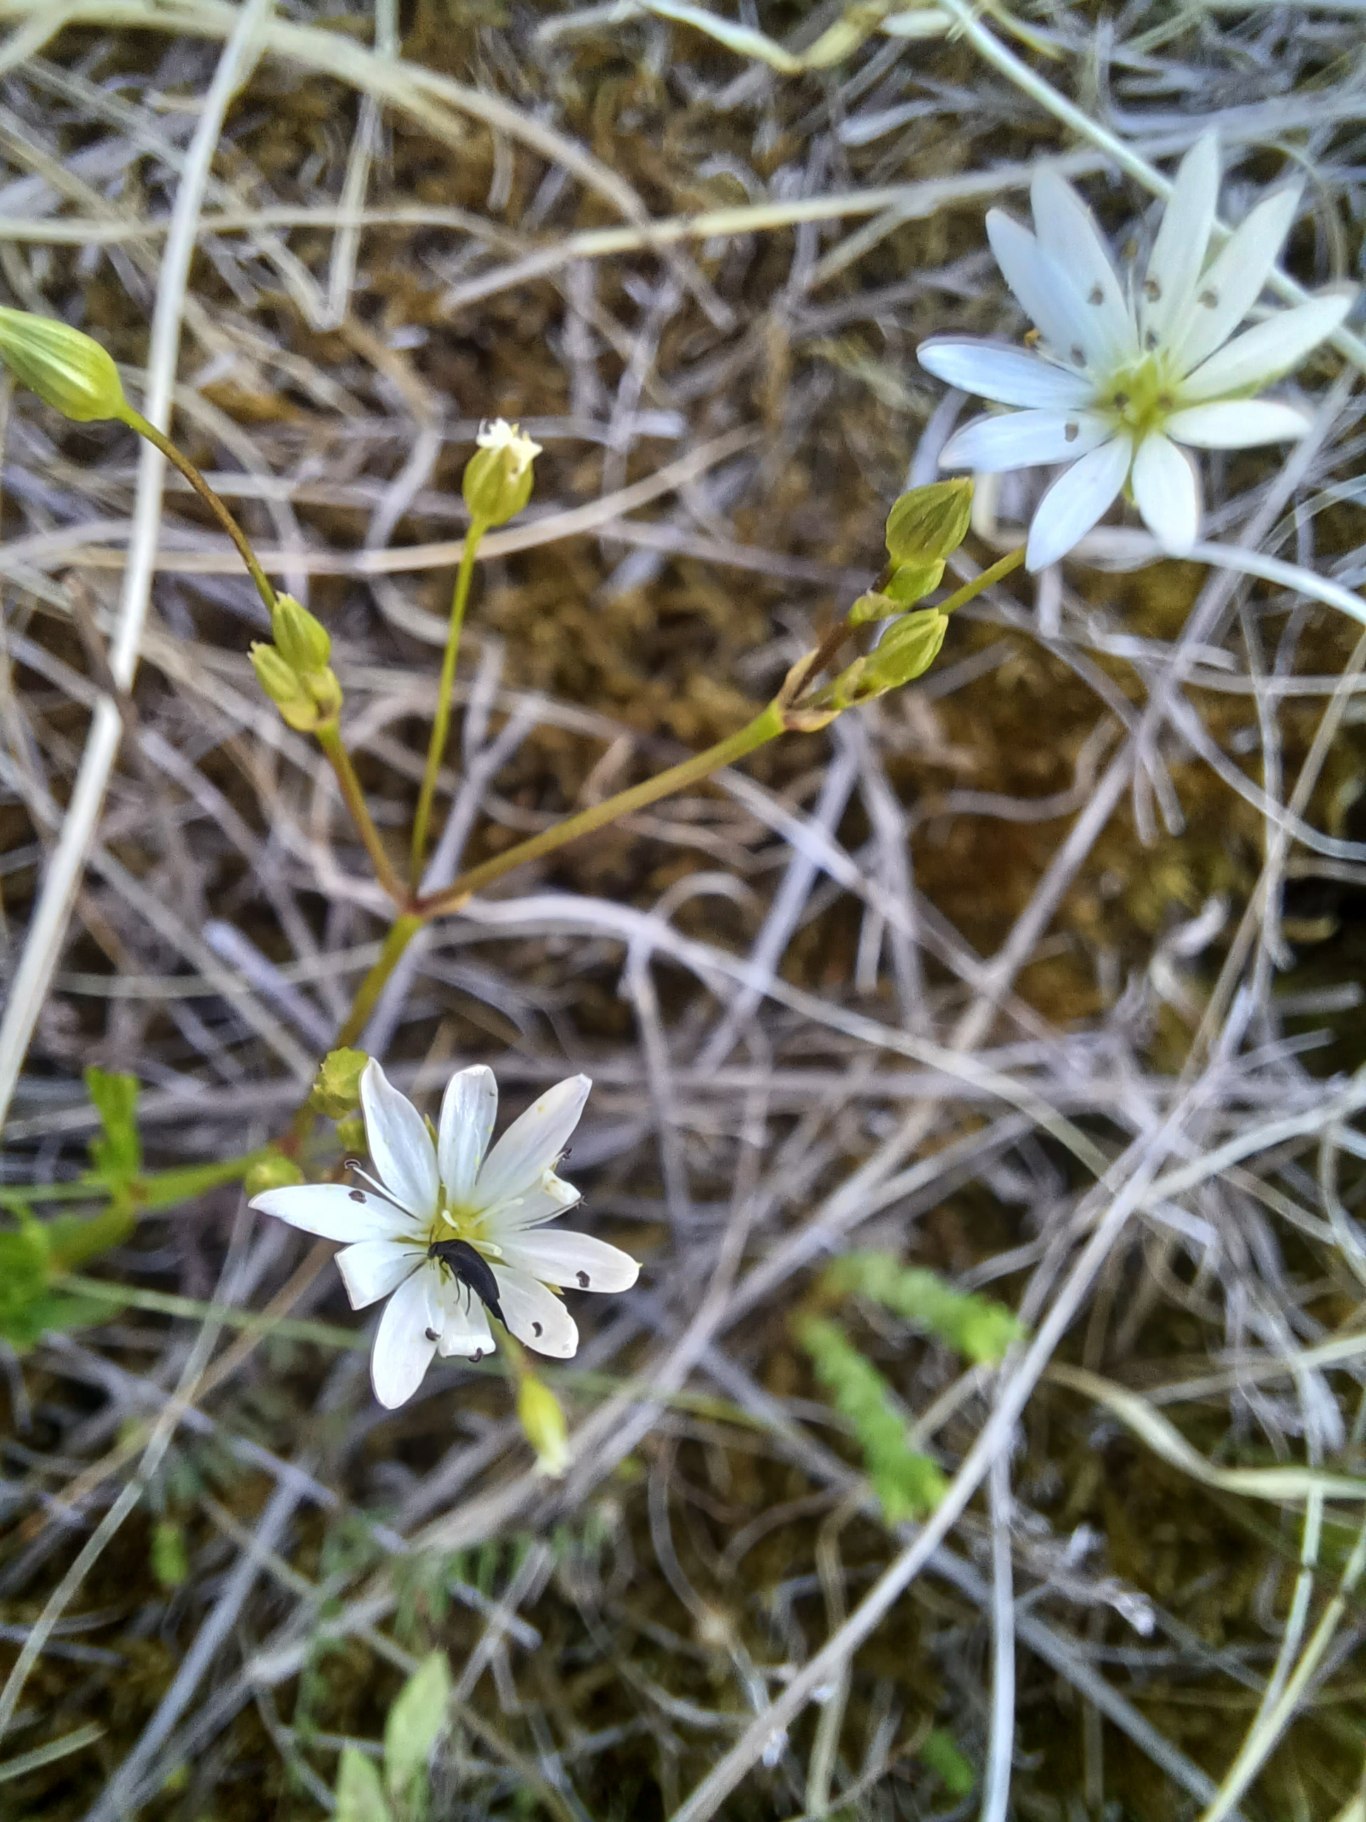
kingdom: Plantae
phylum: Tracheophyta
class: Magnoliopsida
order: Caryophyllales
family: Caryophyllaceae
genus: Stellaria
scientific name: Stellaria graminea
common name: Græsbladet fladstjerne
